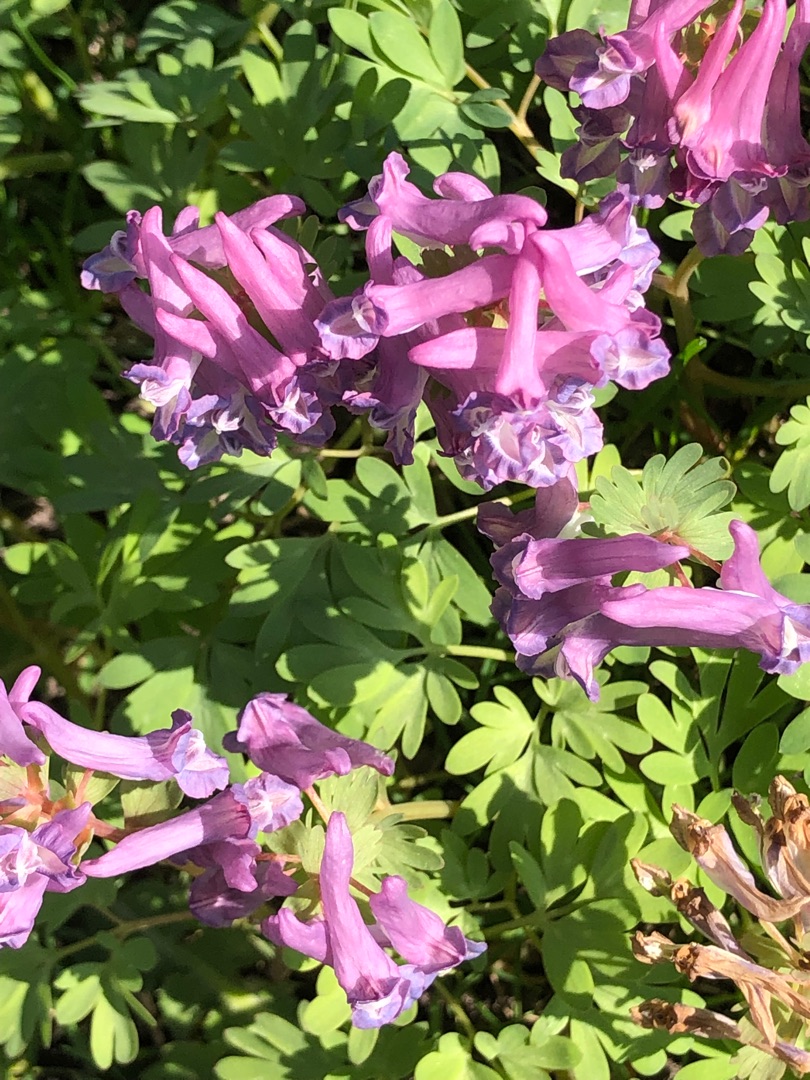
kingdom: Plantae
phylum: Tracheophyta
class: Magnoliopsida
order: Ranunculales
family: Papaveraceae
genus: Corydalis
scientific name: Corydalis solida
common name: Langstilket lærkespore
